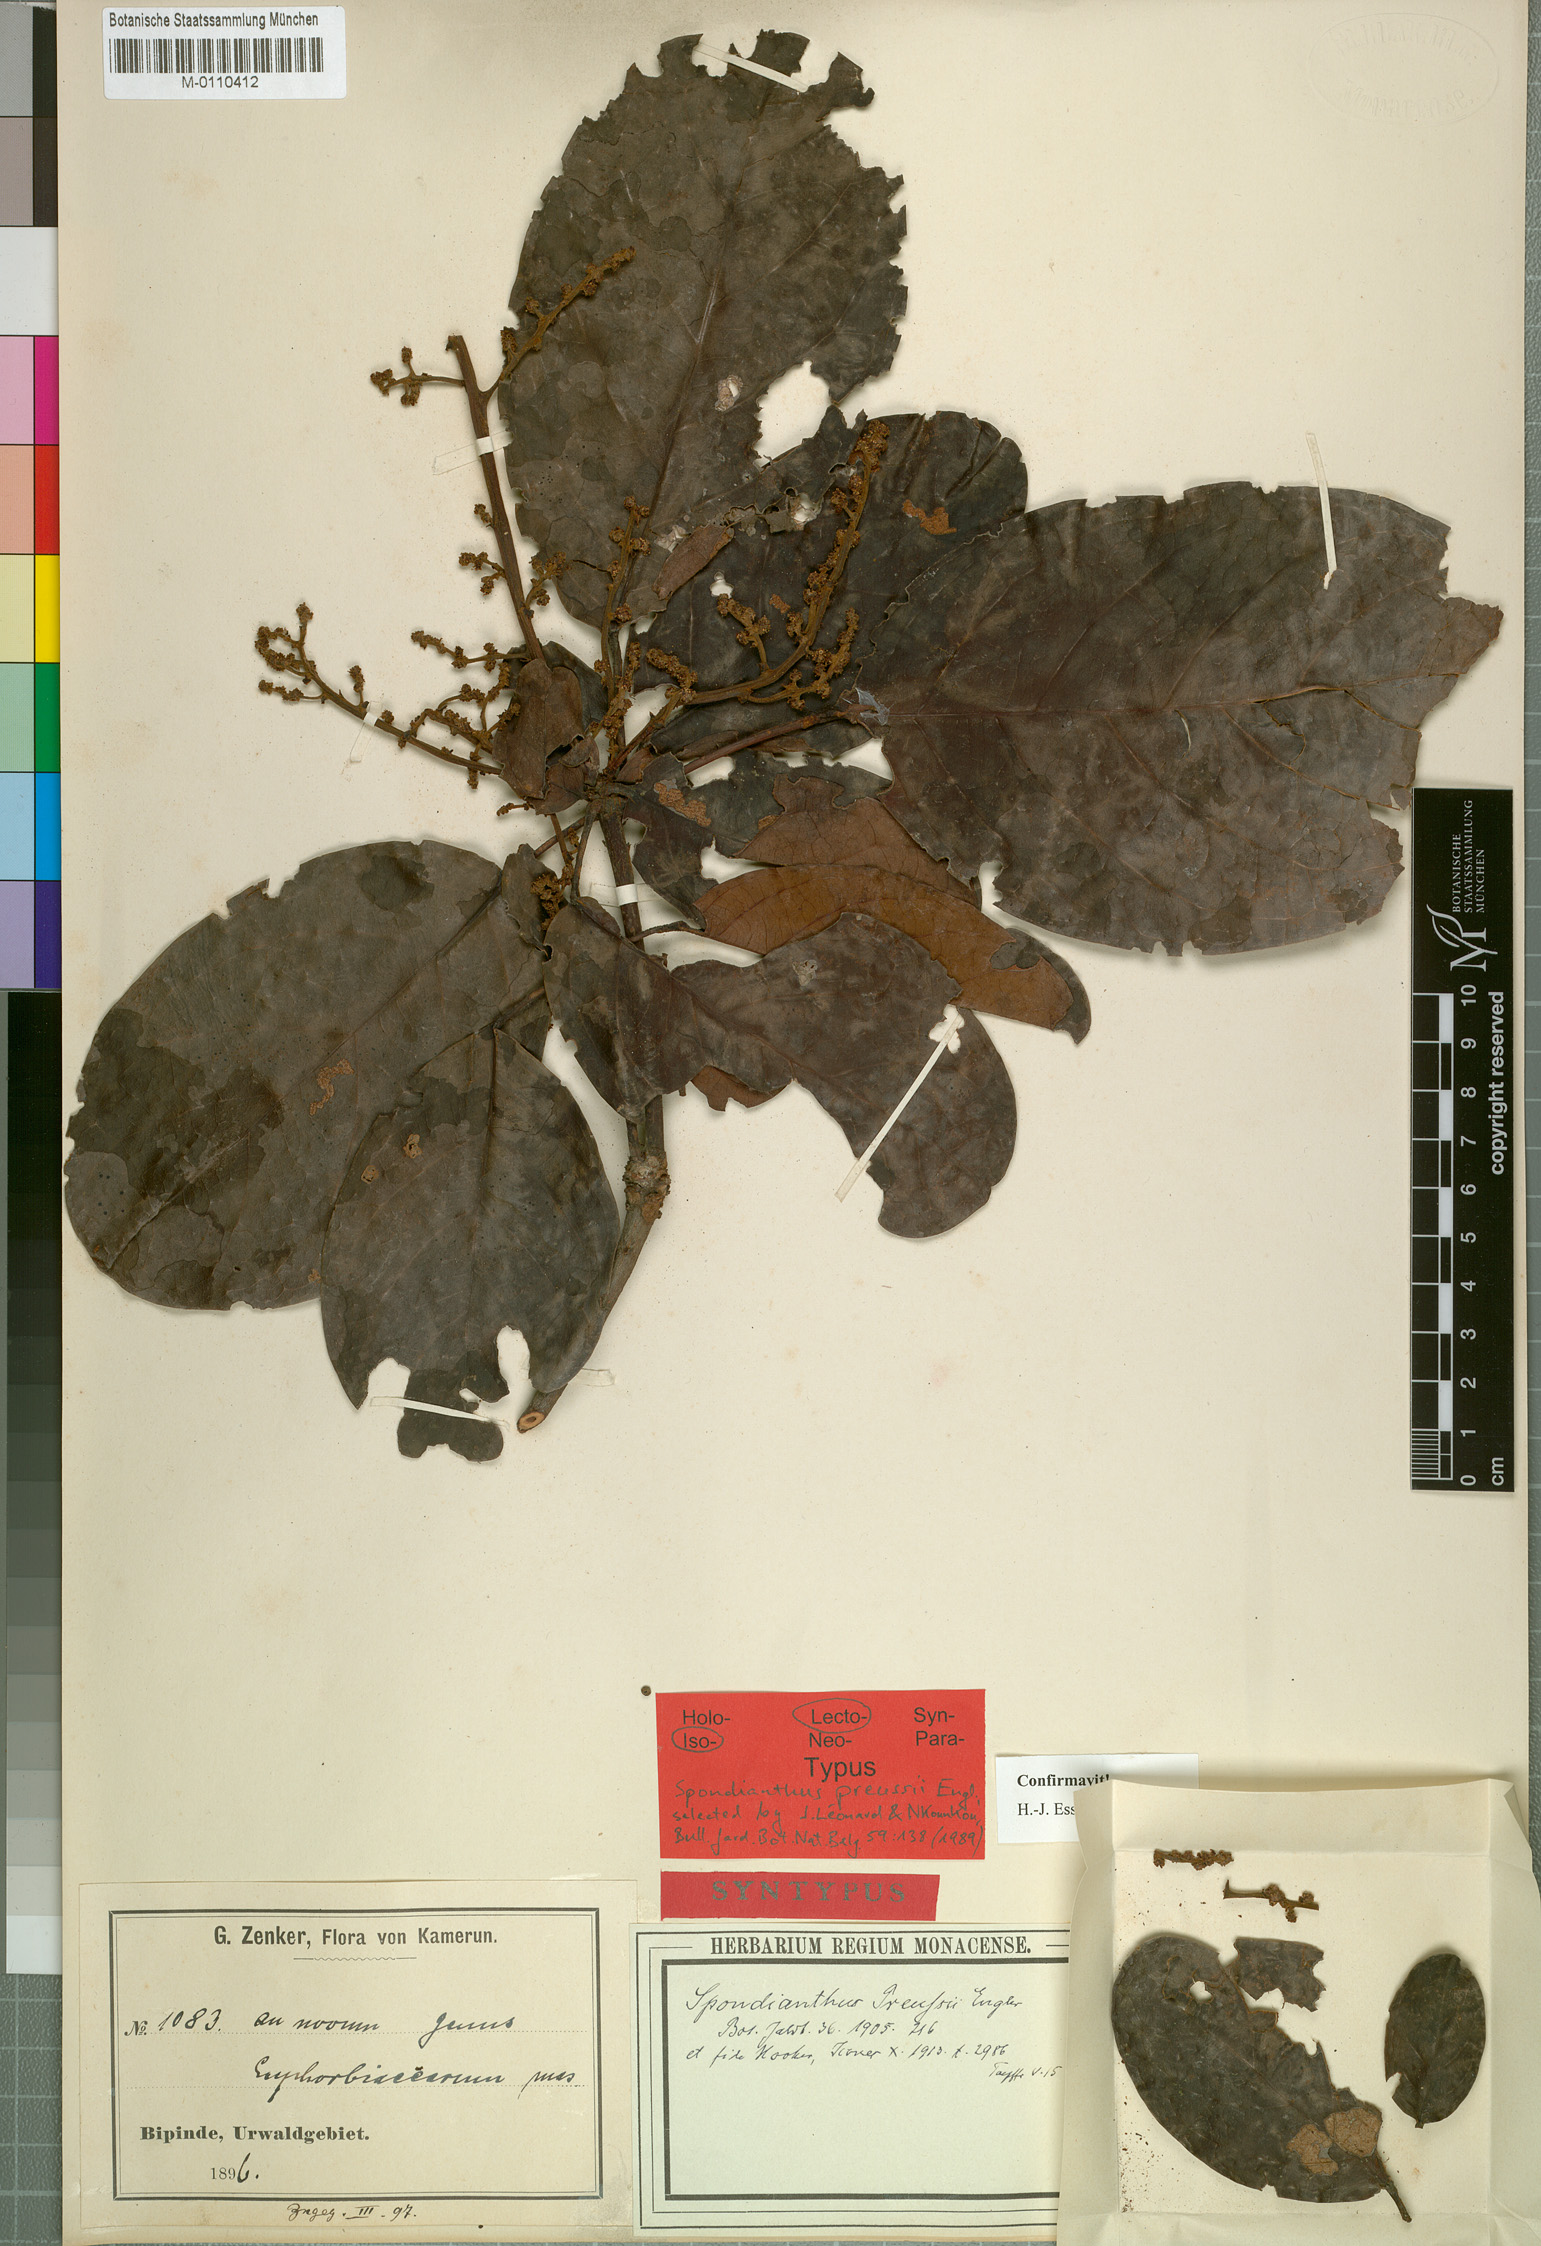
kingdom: Plantae
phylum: Tracheophyta
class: Magnoliopsida
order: Malpighiales
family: Phyllanthaceae
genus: Spondianthus
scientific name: Spondianthus preussii
